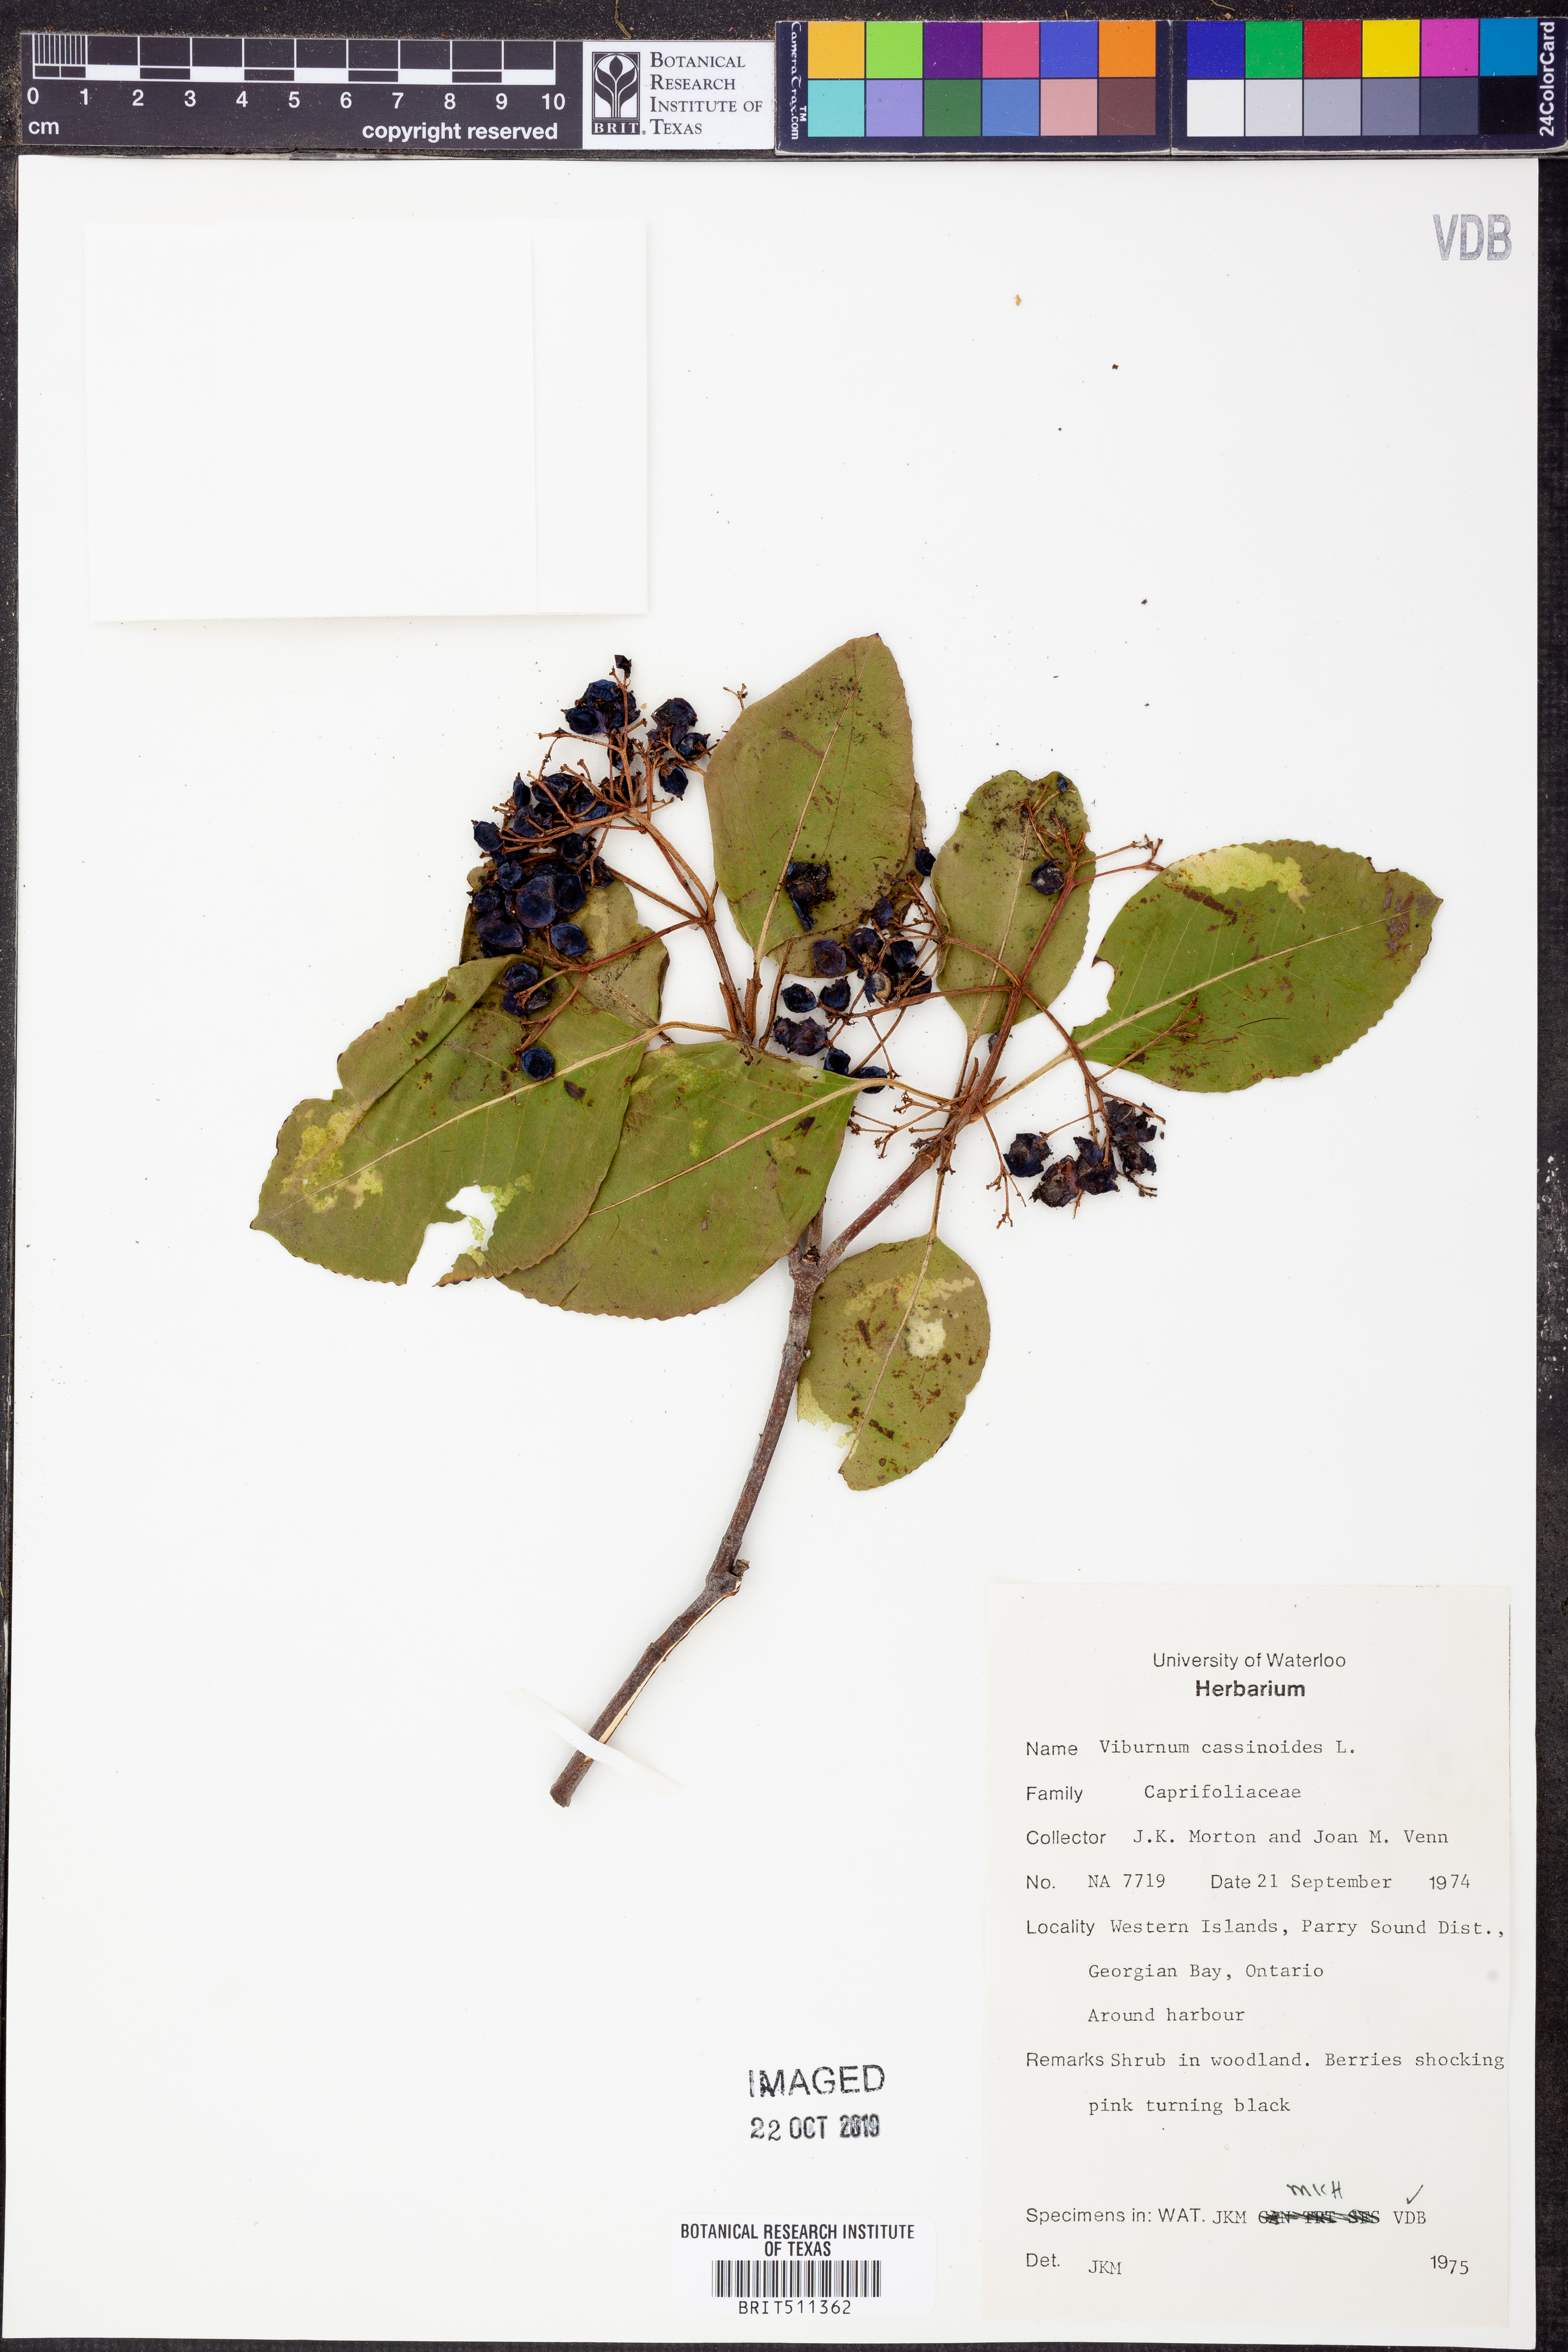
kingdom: Plantae
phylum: Tracheophyta
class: Magnoliopsida
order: Dipsacales
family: Viburnaceae
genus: Viburnum
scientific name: Viburnum cassinoides
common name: Swamp haw
